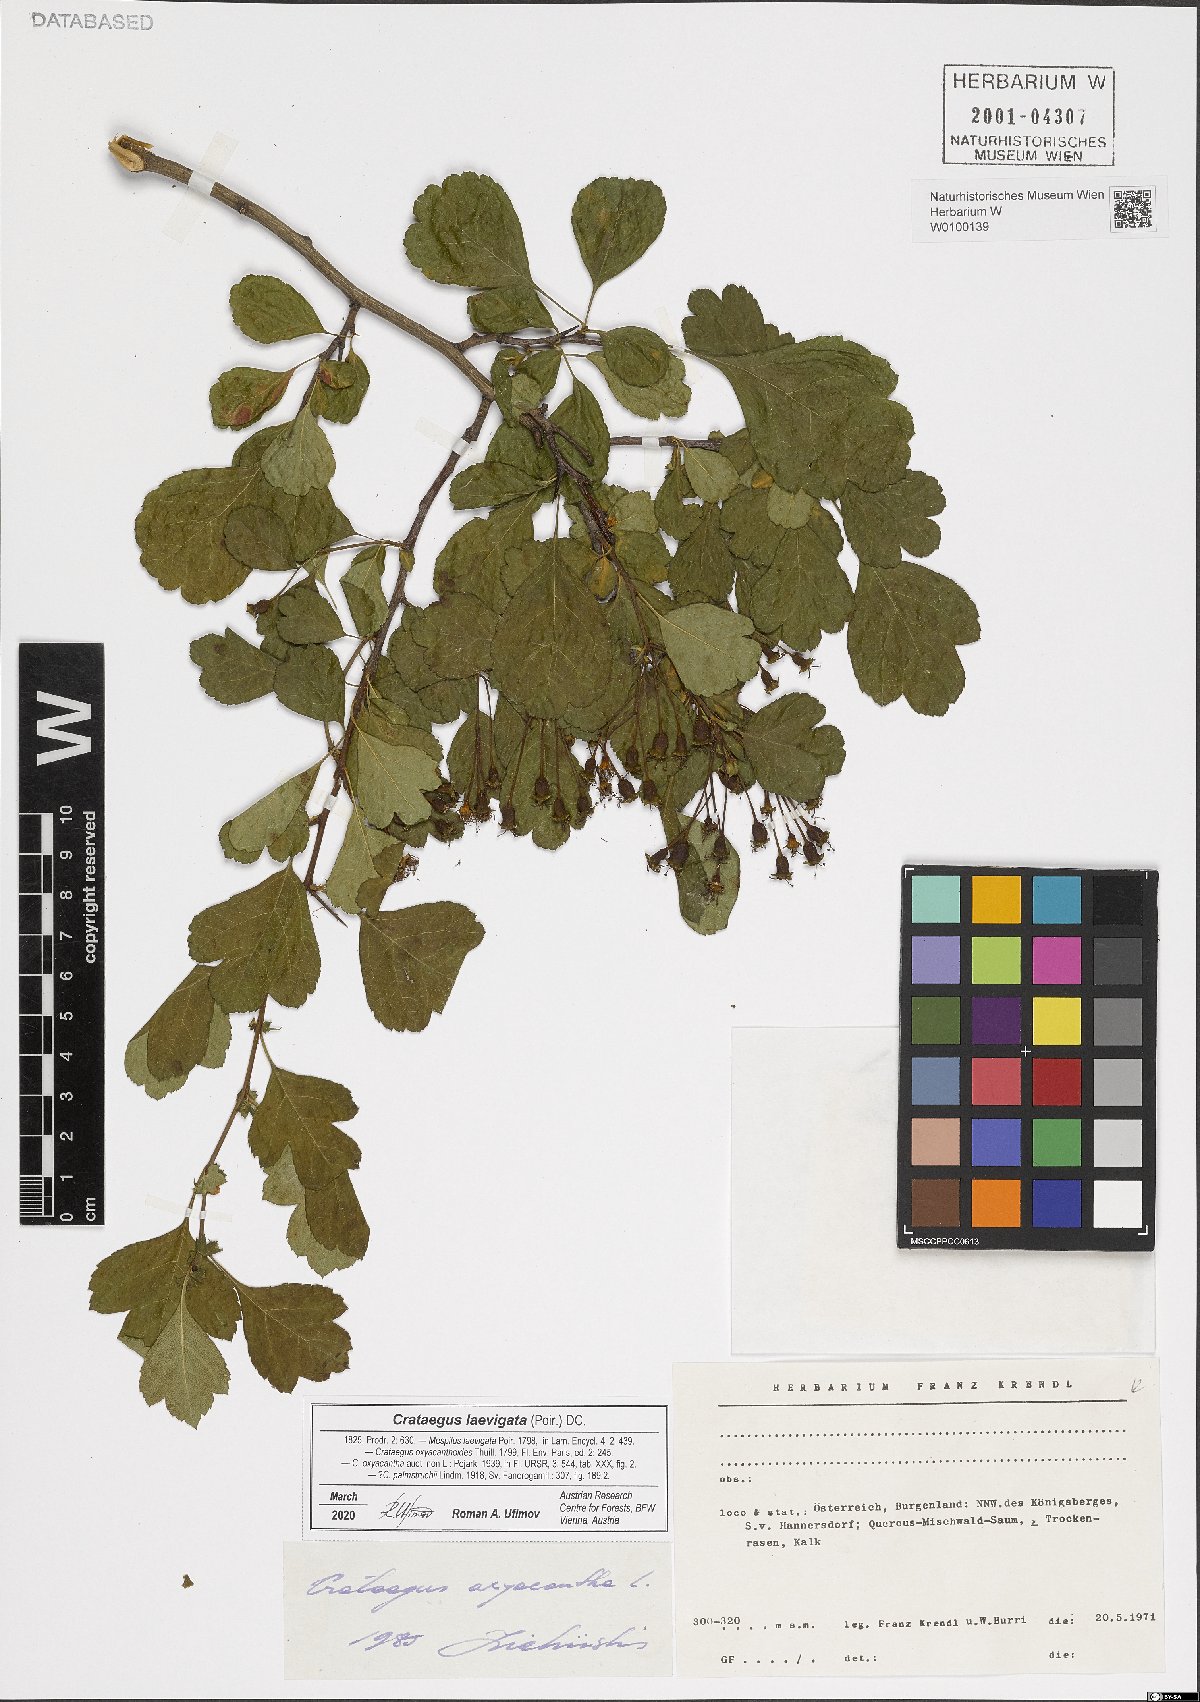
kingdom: Plantae
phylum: Tracheophyta
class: Magnoliopsida
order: Rosales
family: Rosaceae
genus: Crataegus
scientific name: Crataegus laevigata
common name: Midland hawthorn
